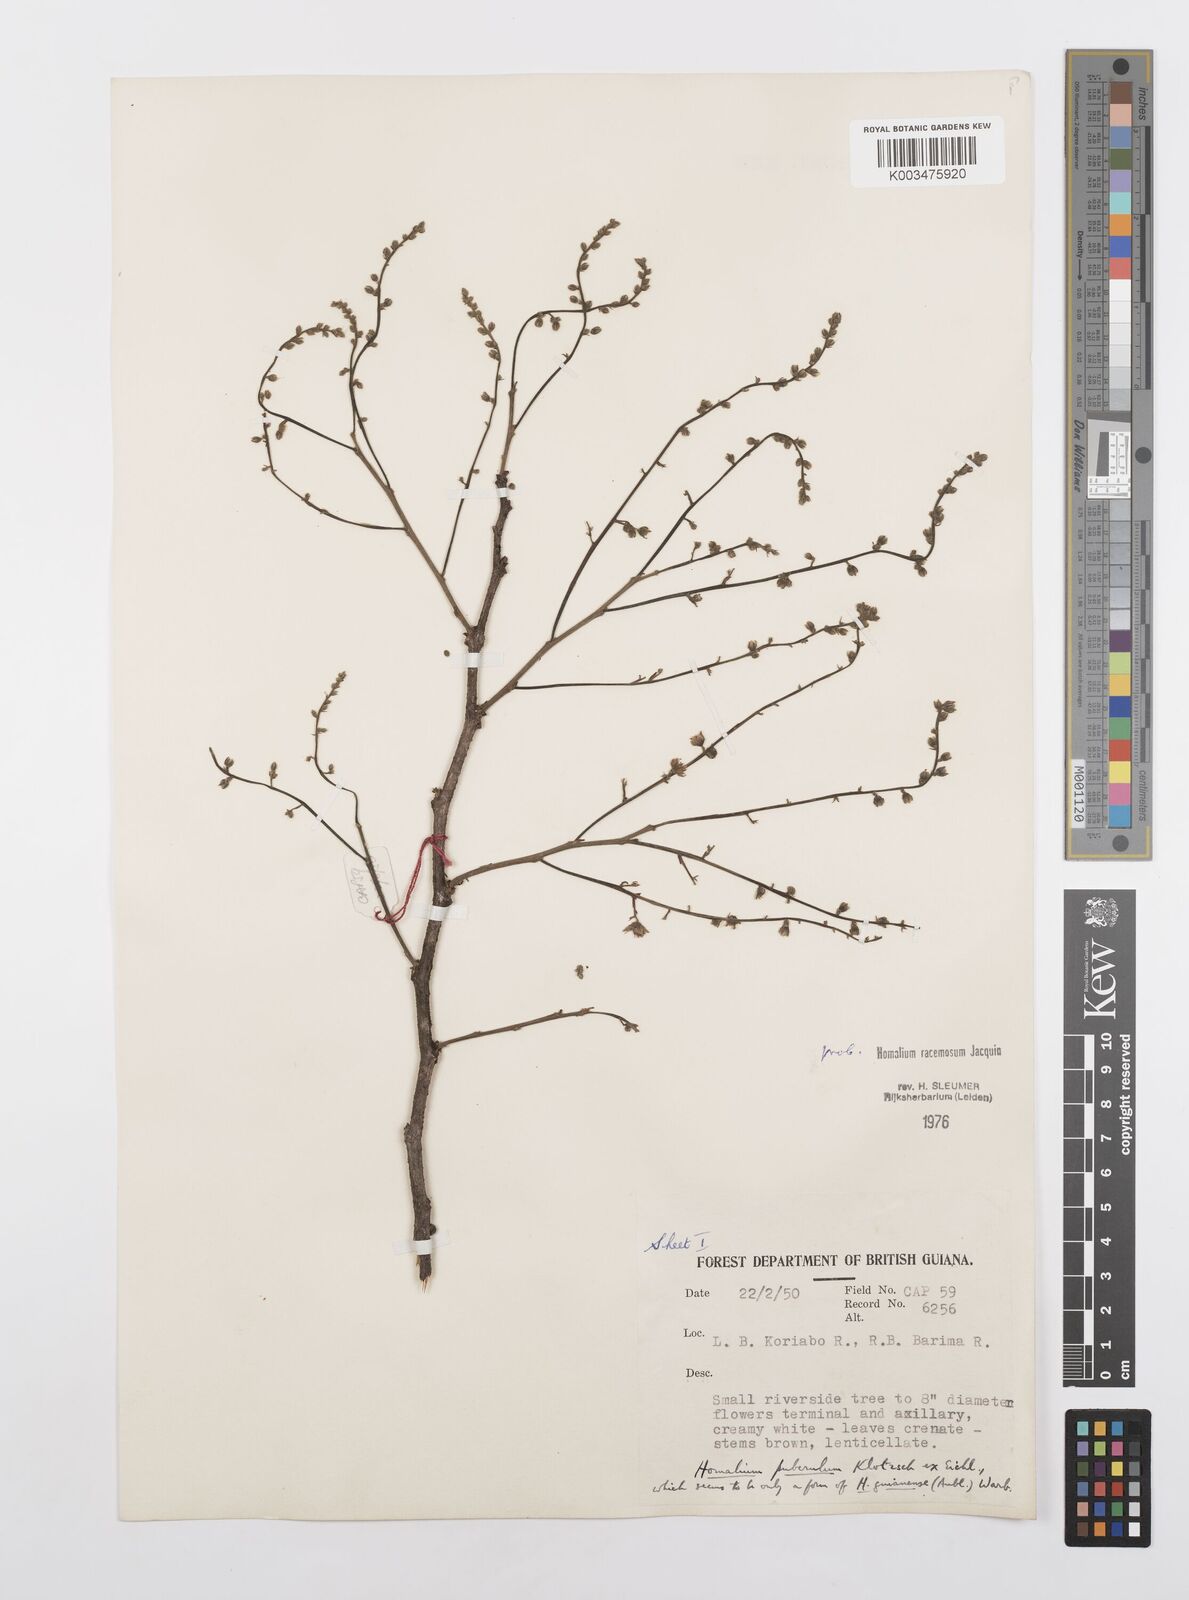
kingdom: Plantae
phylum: Tracheophyta
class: Magnoliopsida
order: Malpighiales
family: Salicaceae
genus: Homalium
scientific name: Homalium racemosum
